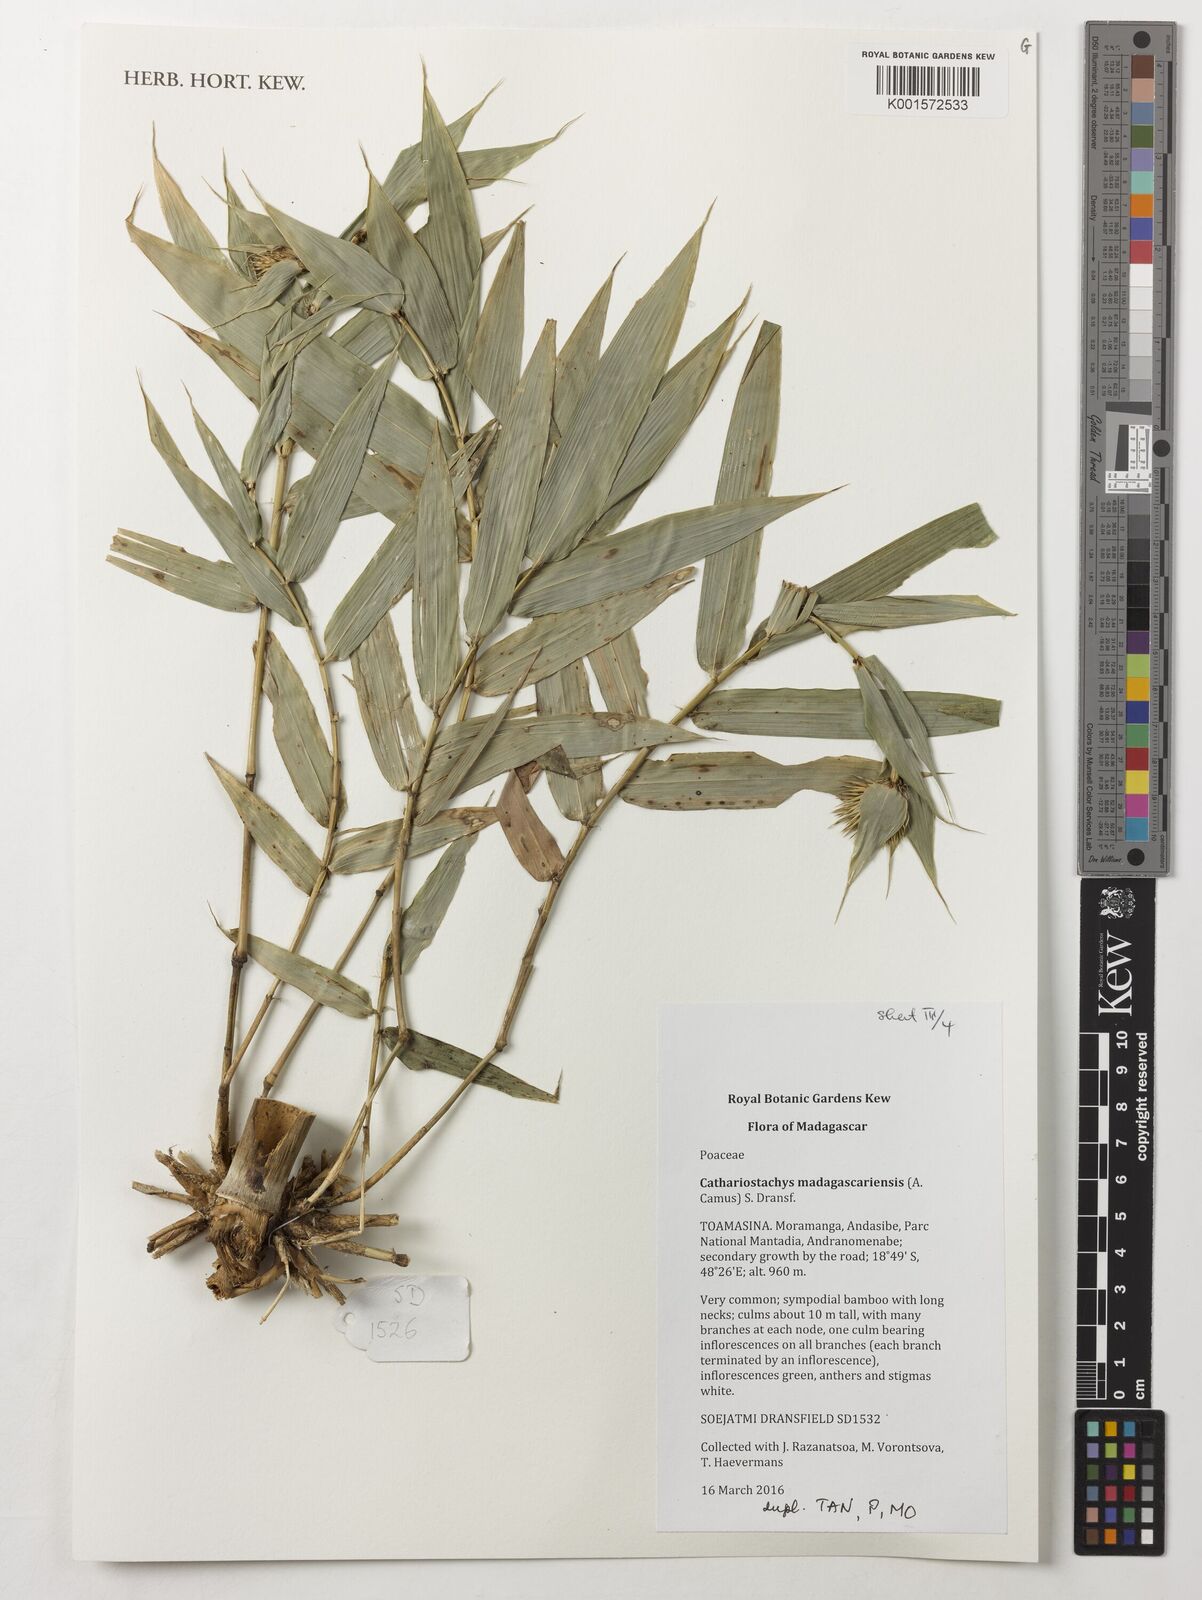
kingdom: Plantae
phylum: Tracheophyta
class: Liliopsida
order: Poales
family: Poaceae
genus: Cathariostachys
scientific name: Cathariostachys madagascariensis
